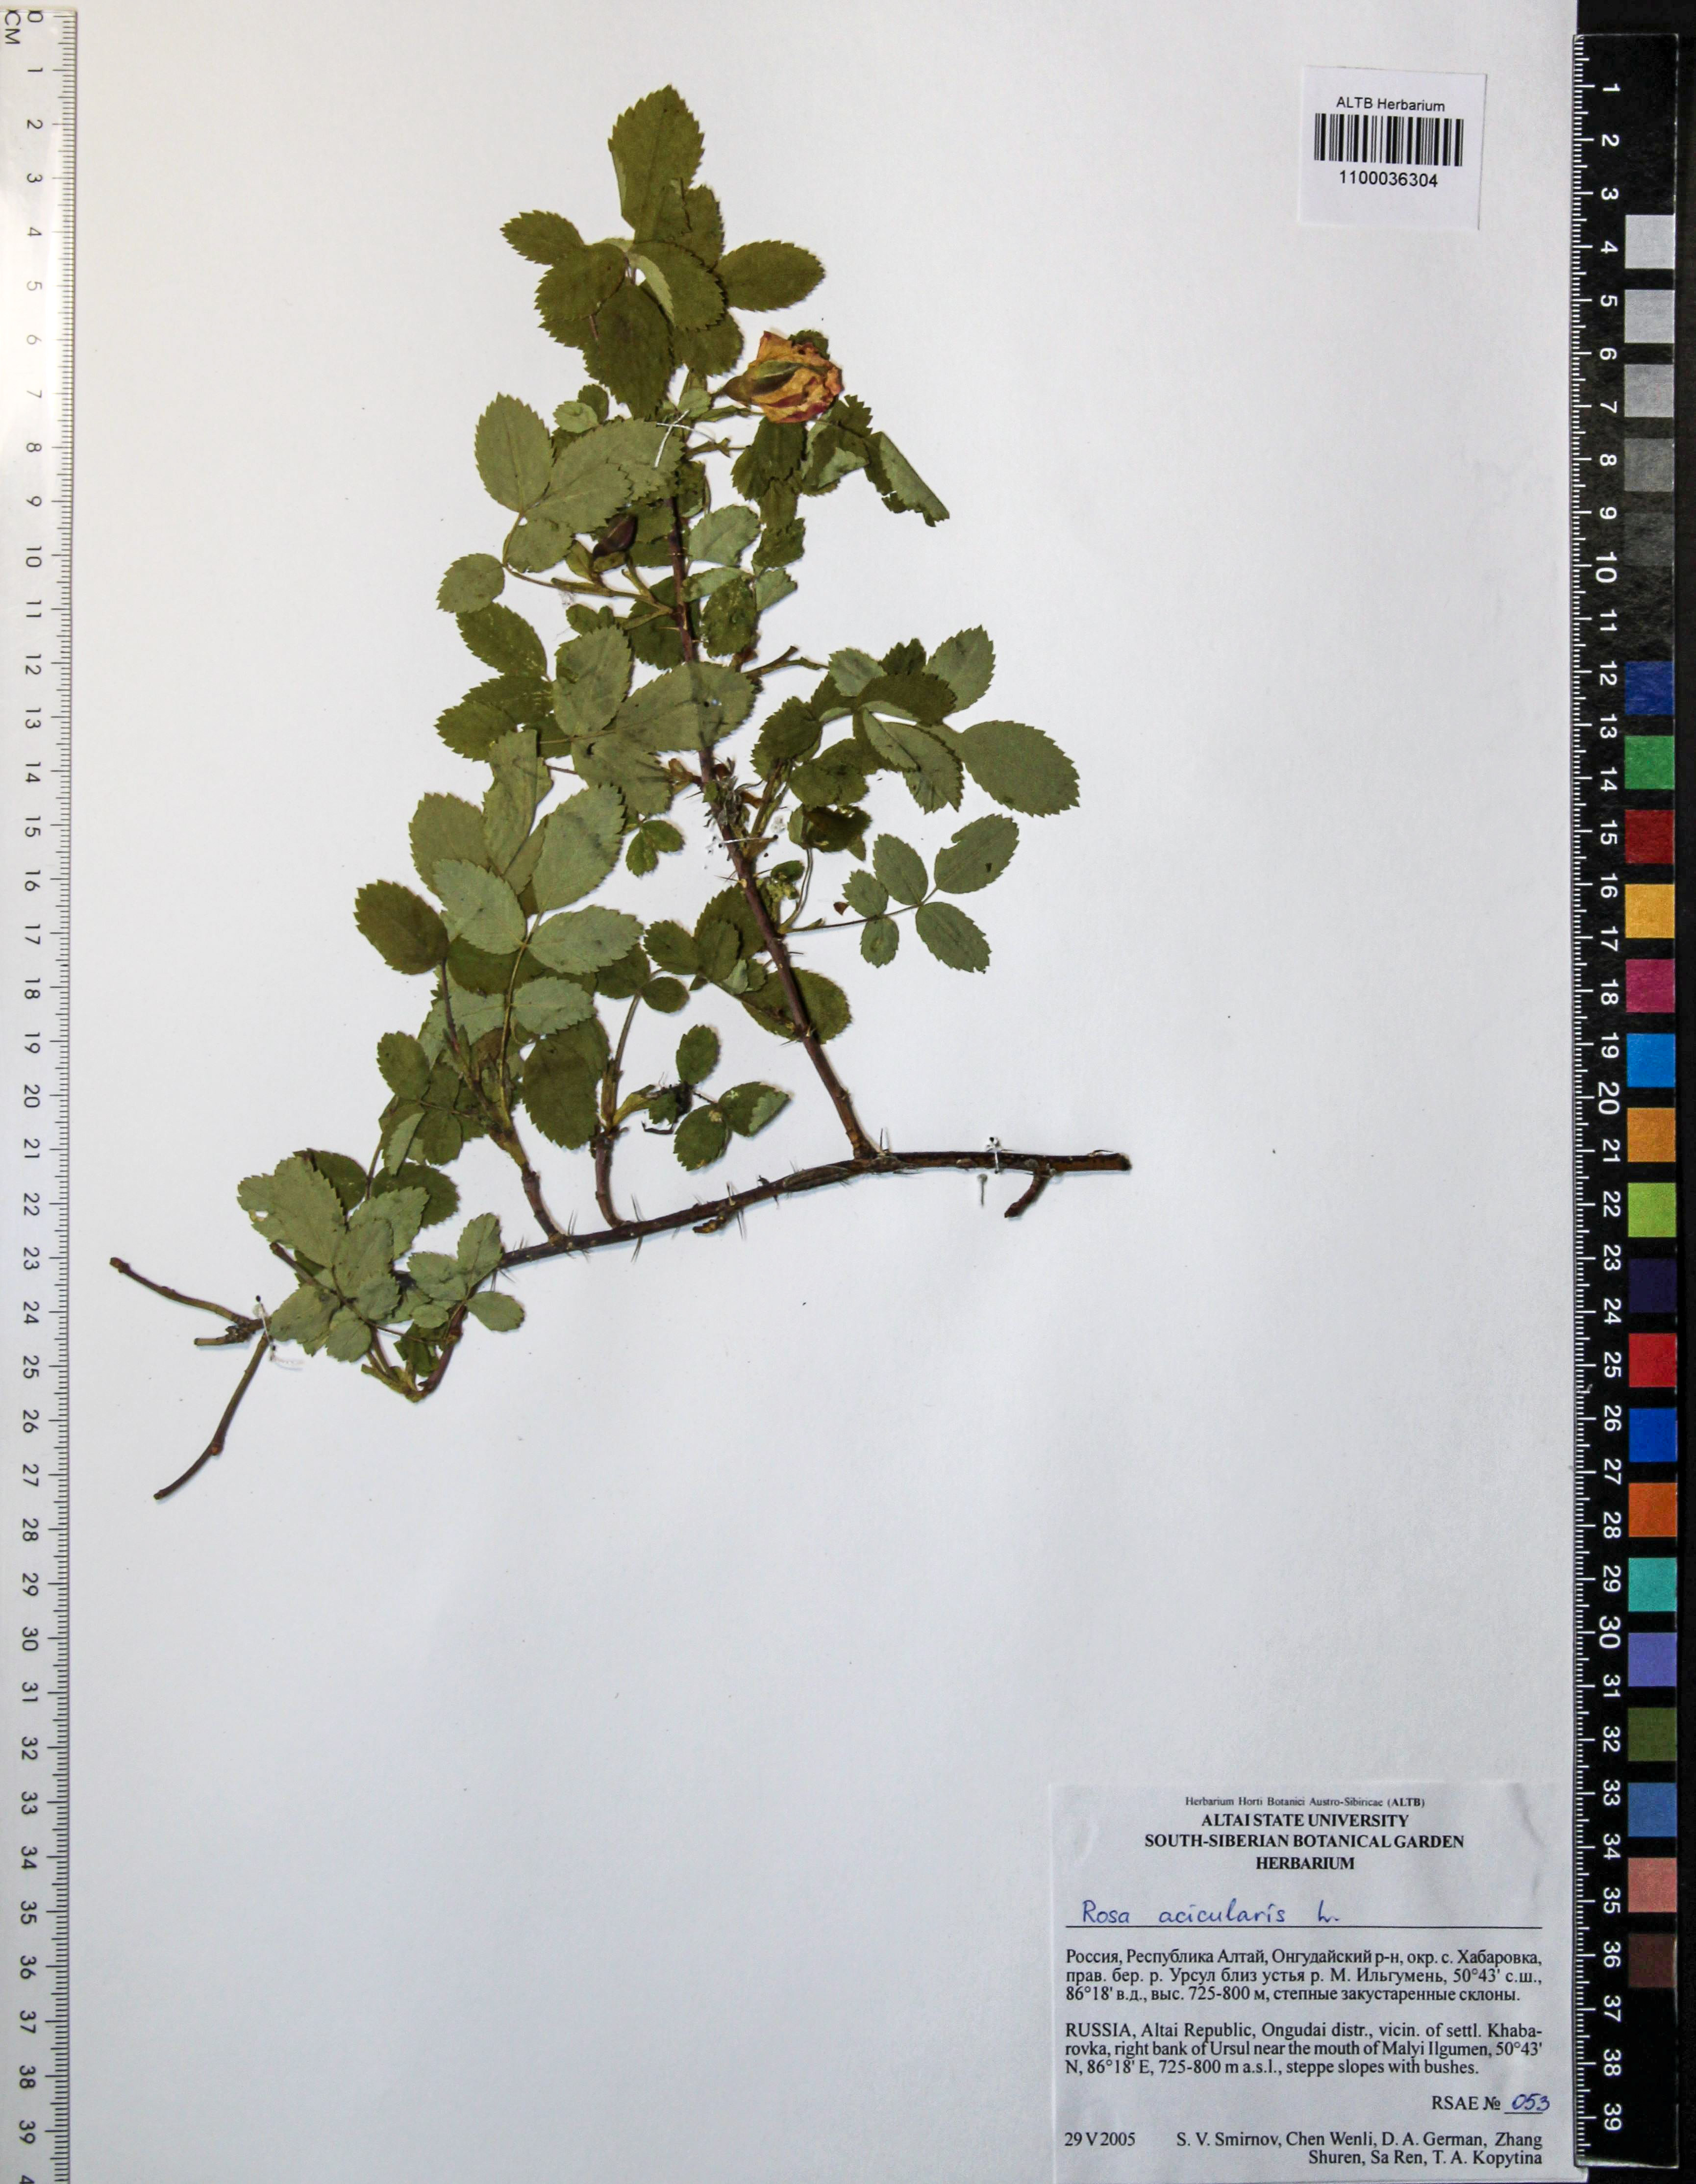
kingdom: Plantae
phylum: Tracheophyta
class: Magnoliopsida
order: Rosales
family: Rosaceae
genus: Rosa
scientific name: Rosa acicularis
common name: Prickly rose
